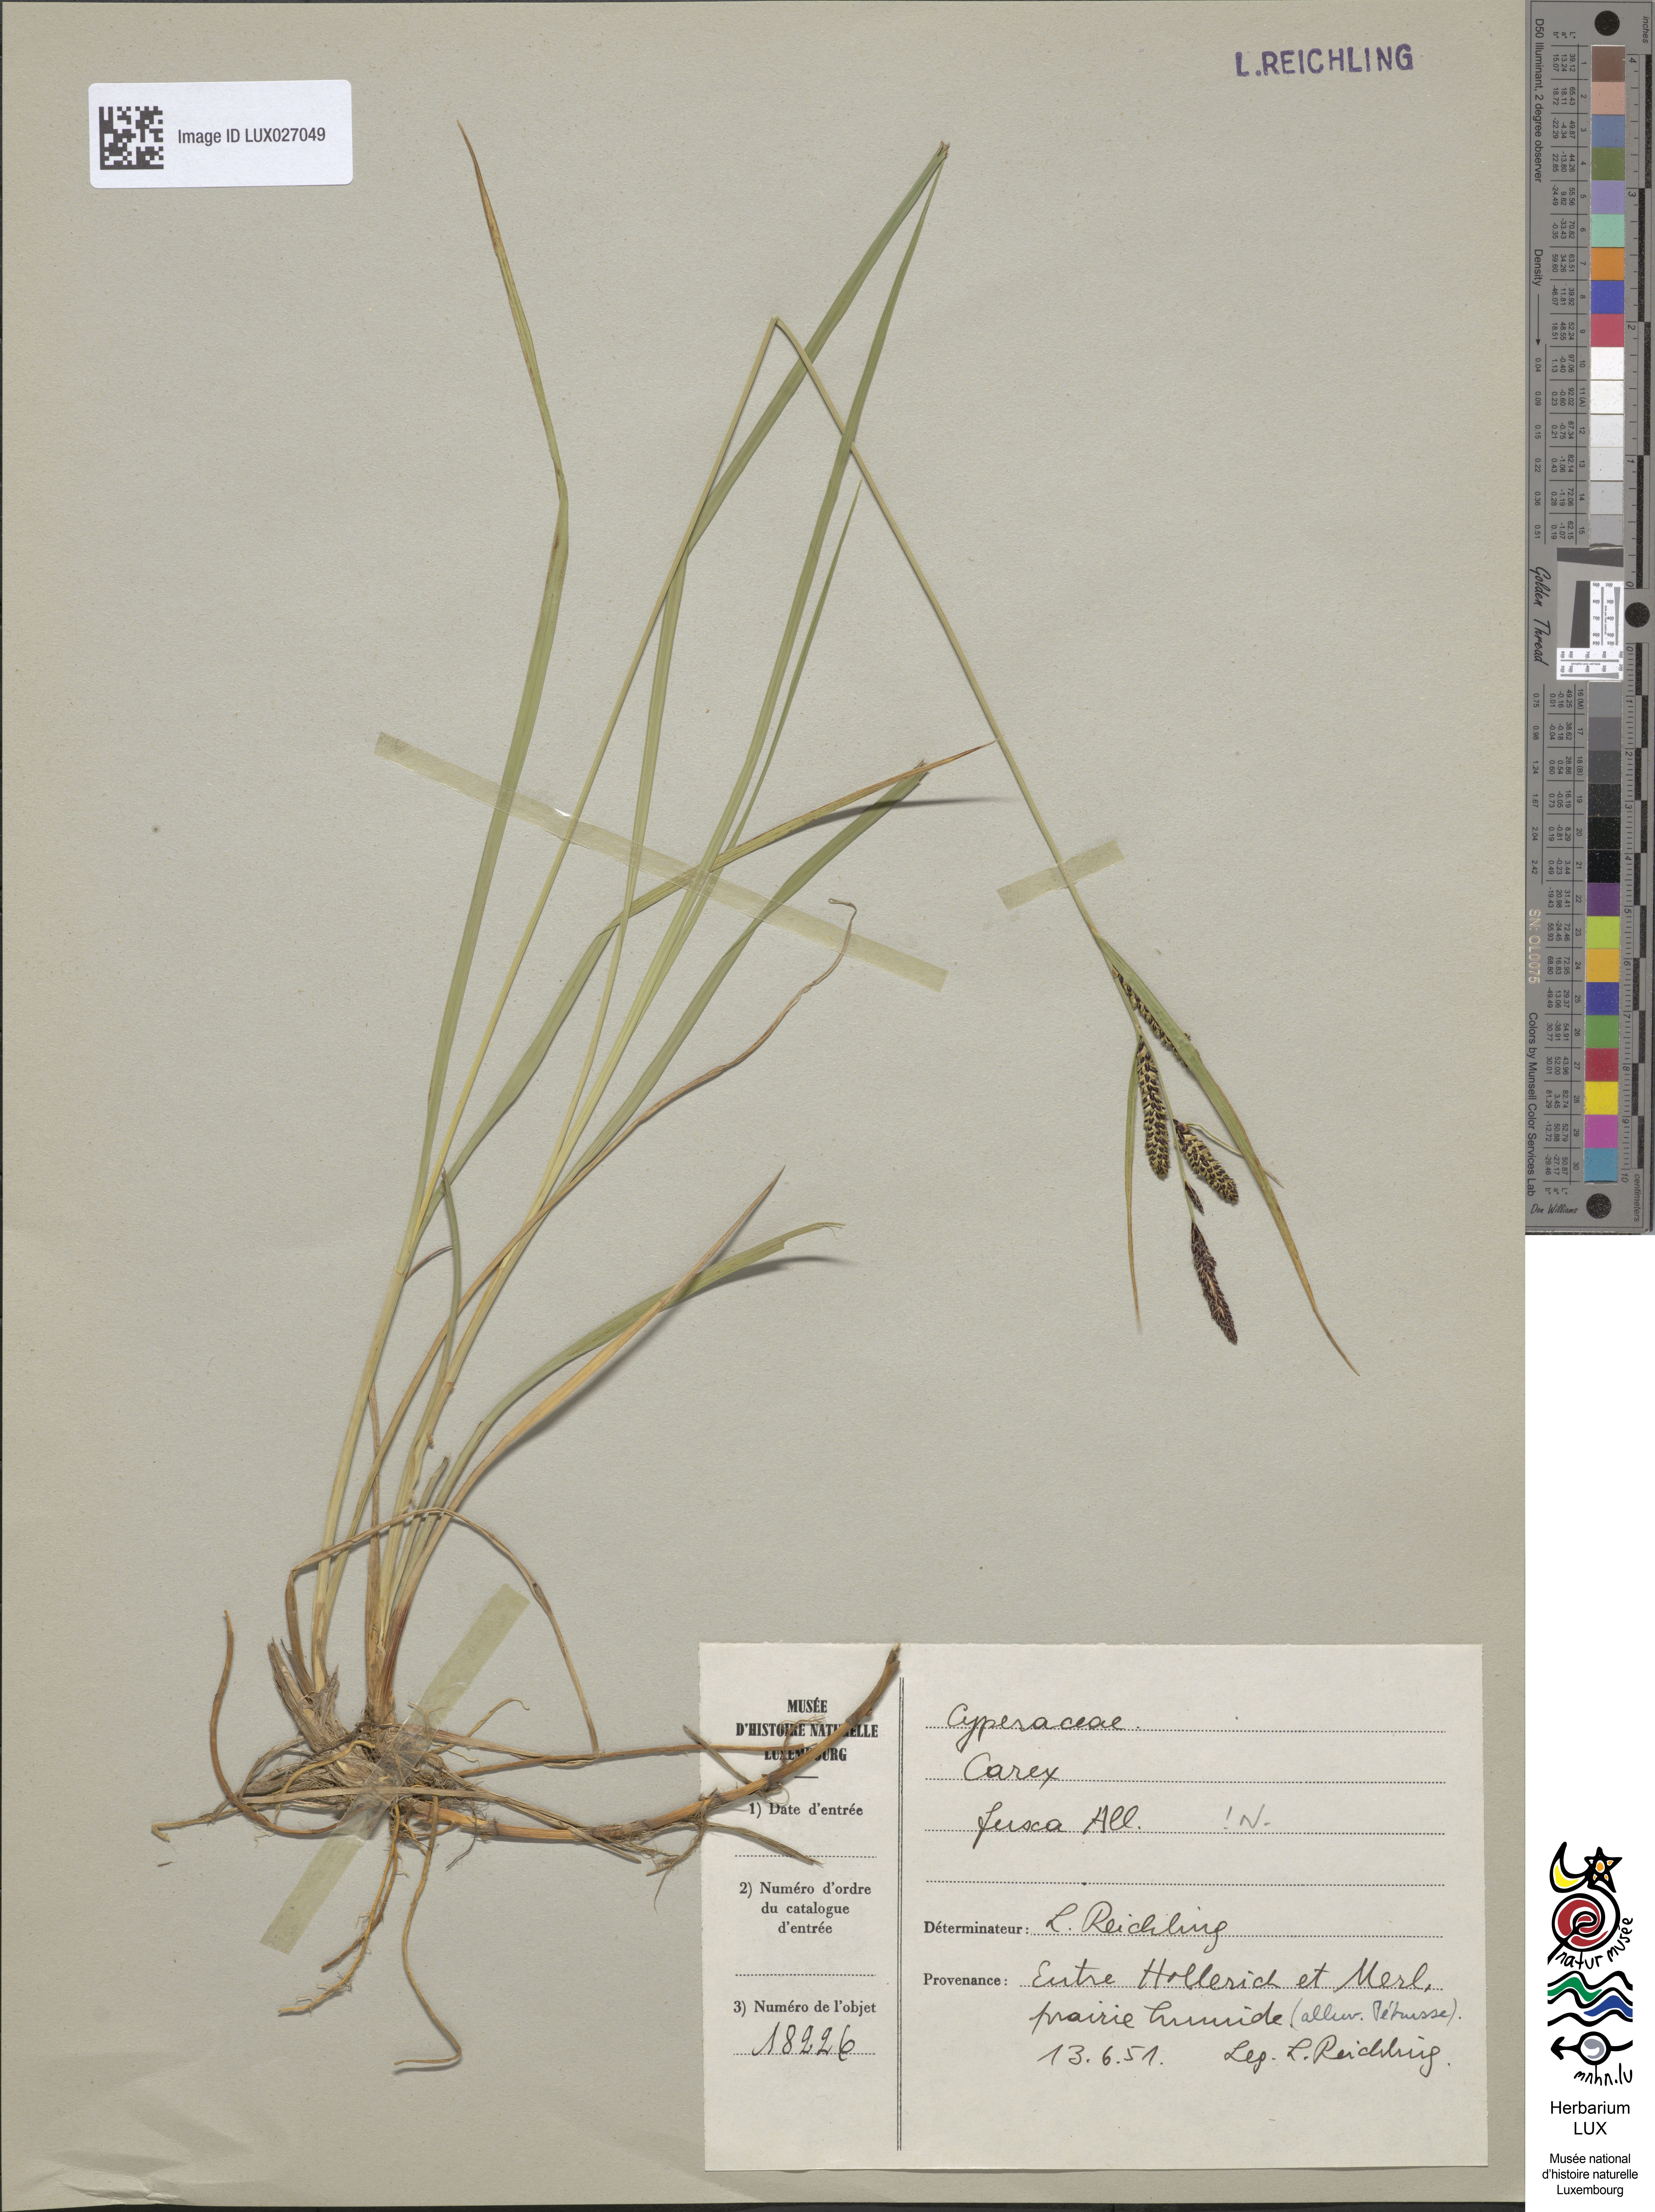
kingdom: Plantae
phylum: Tracheophyta
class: Liliopsida
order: Poales
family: Cyperaceae
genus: Carex
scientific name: Carex nigra
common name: Common sedge
